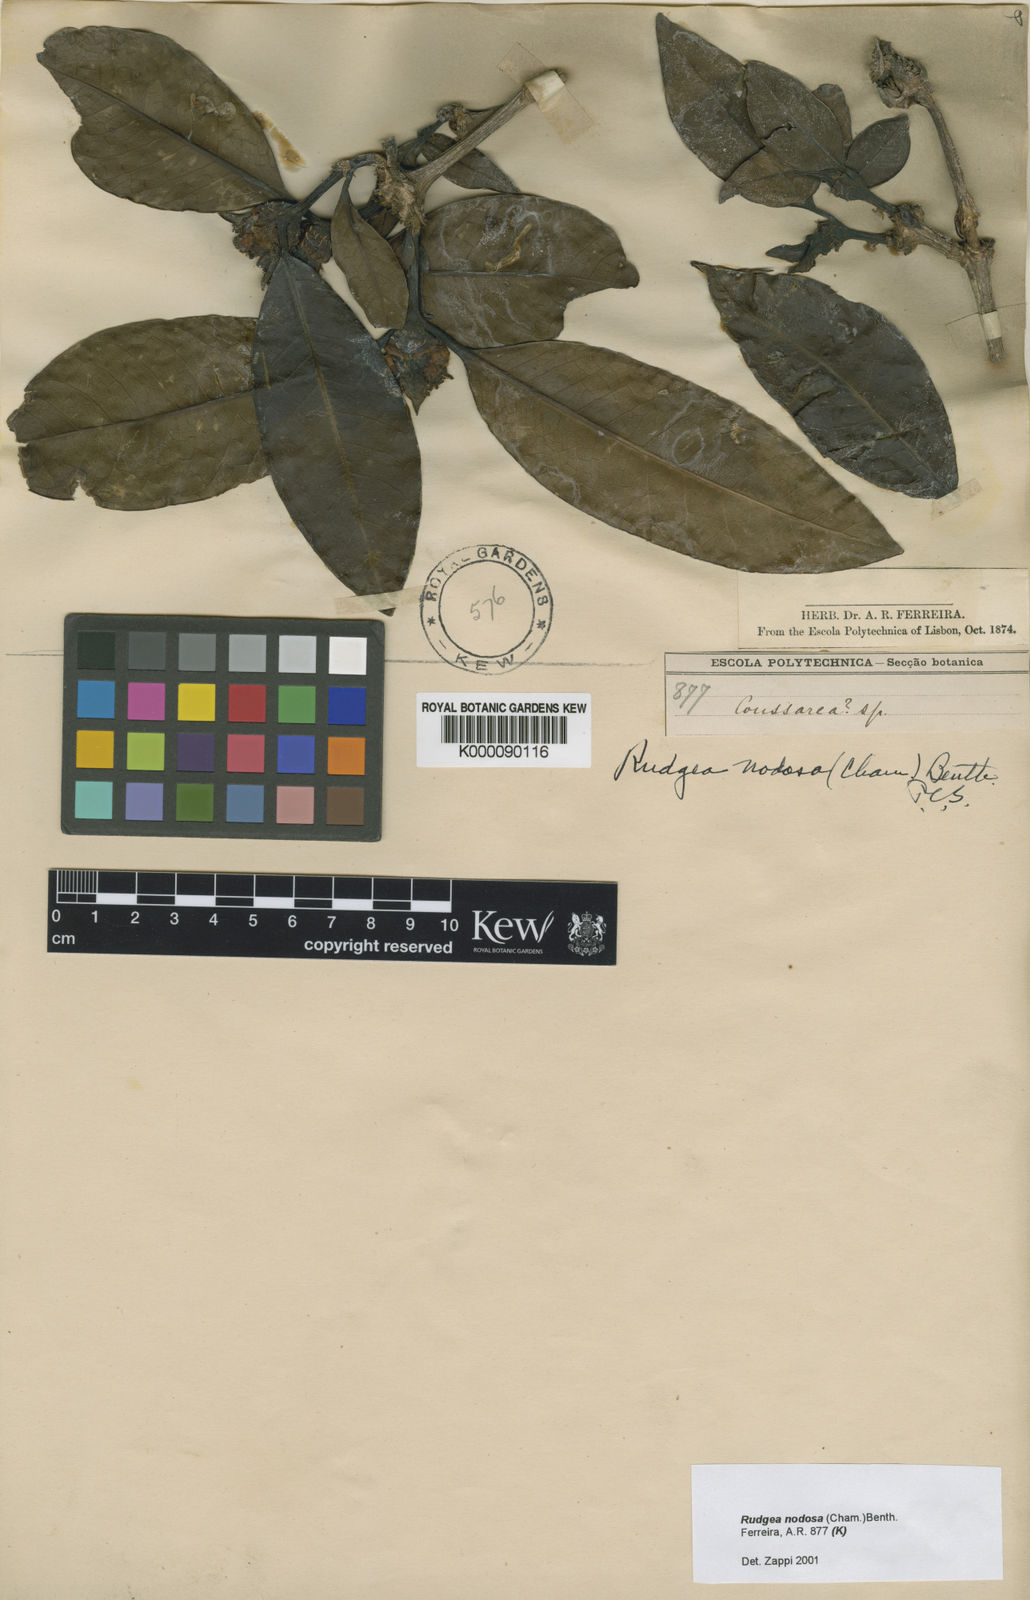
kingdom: Plantae
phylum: Tracheophyta
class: Magnoliopsida
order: Gentianales
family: Rubiaceae
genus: Rudgea
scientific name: Rudgea nodosa
